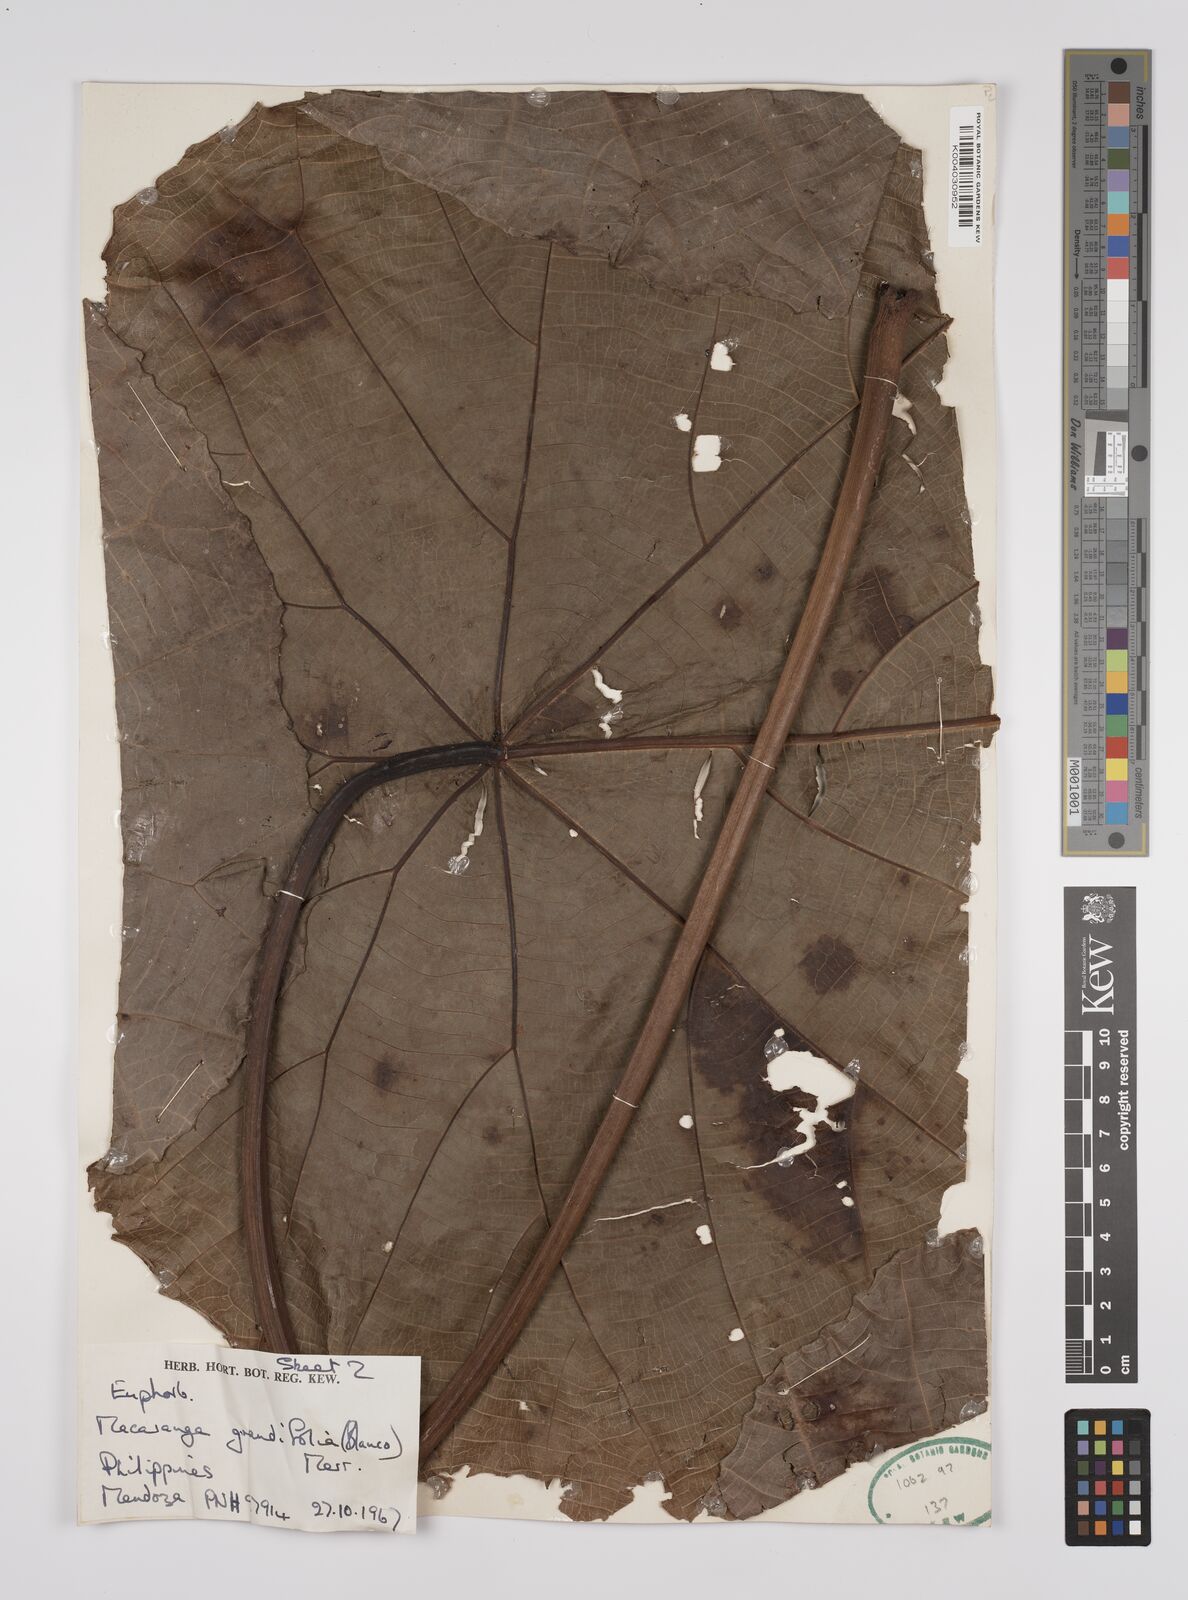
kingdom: Plantae
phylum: Tracheophyta
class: Magnoliopsida
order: Malpighiales
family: Euphorbiaceae
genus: Macaranga
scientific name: Macaranga grandifolia
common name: Coraltree
